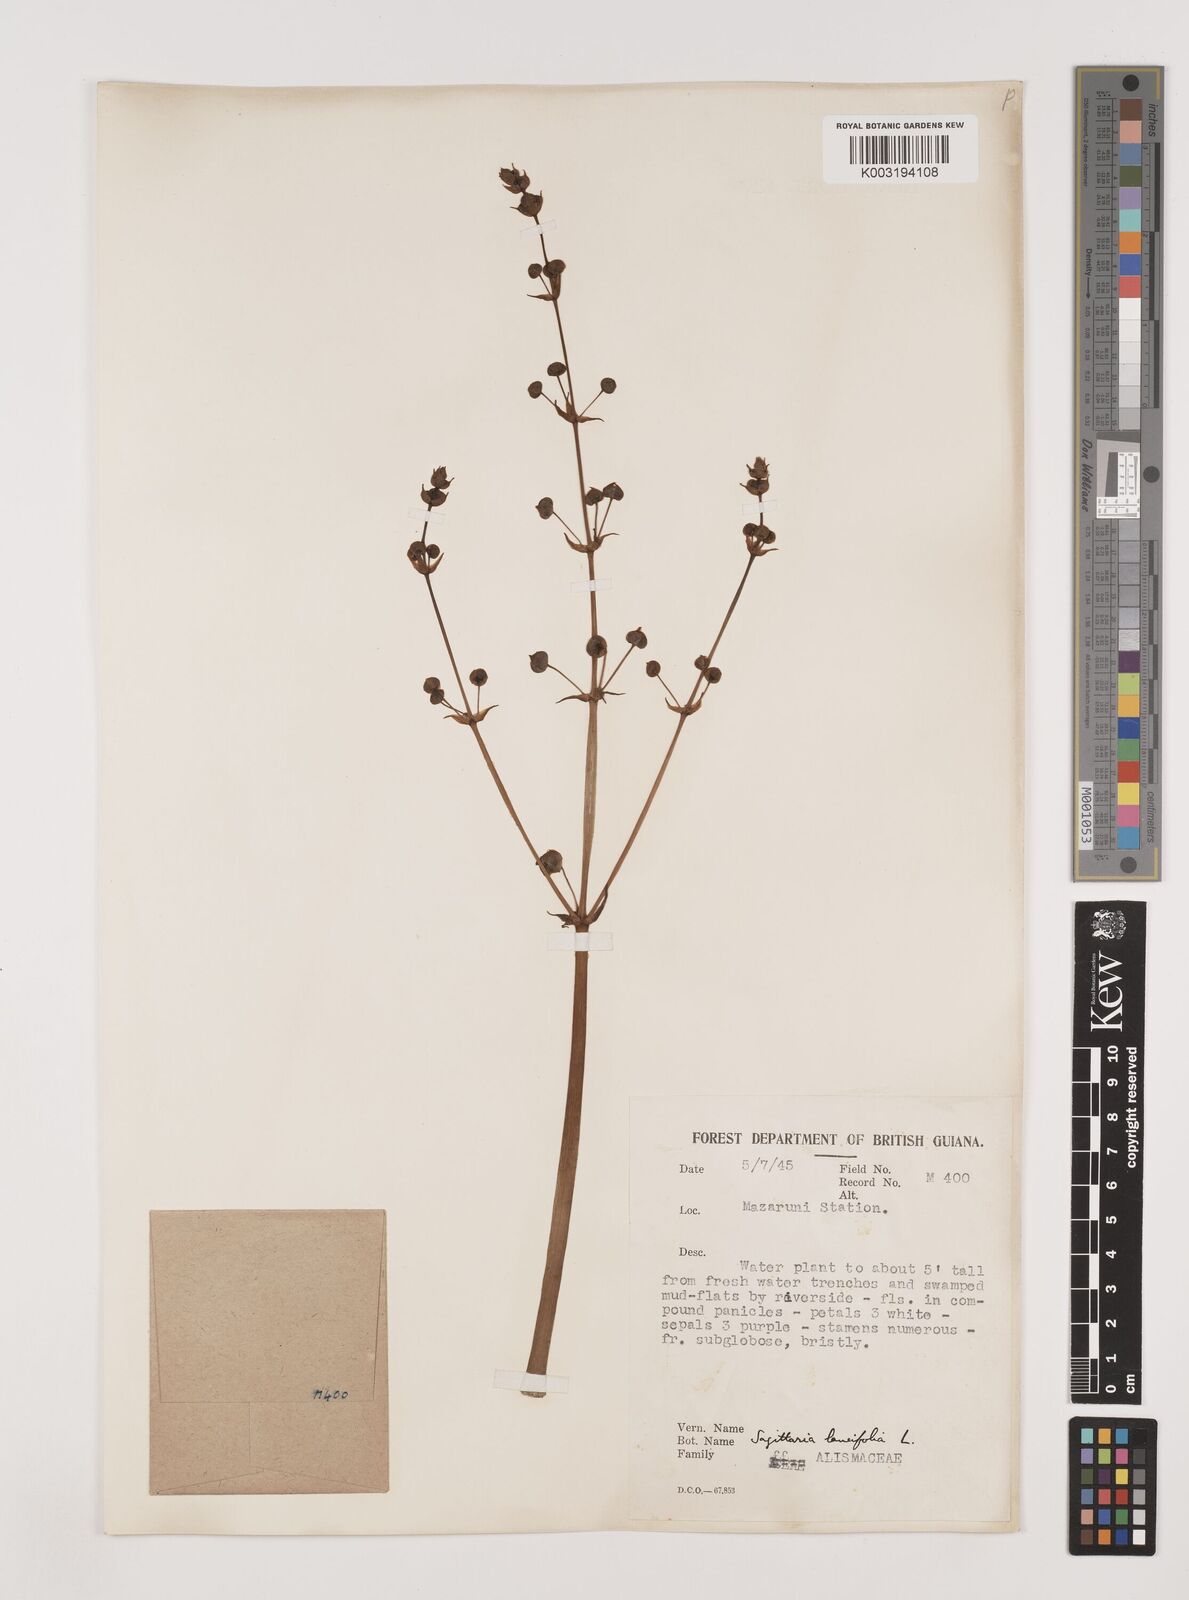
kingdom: Plantae
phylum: Tracheophyta
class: Liliopsida
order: Alismatales
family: Alismataceae
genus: Sagittaria
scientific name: Sagittaria lancifolia
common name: Lance-leaf arrowhead
